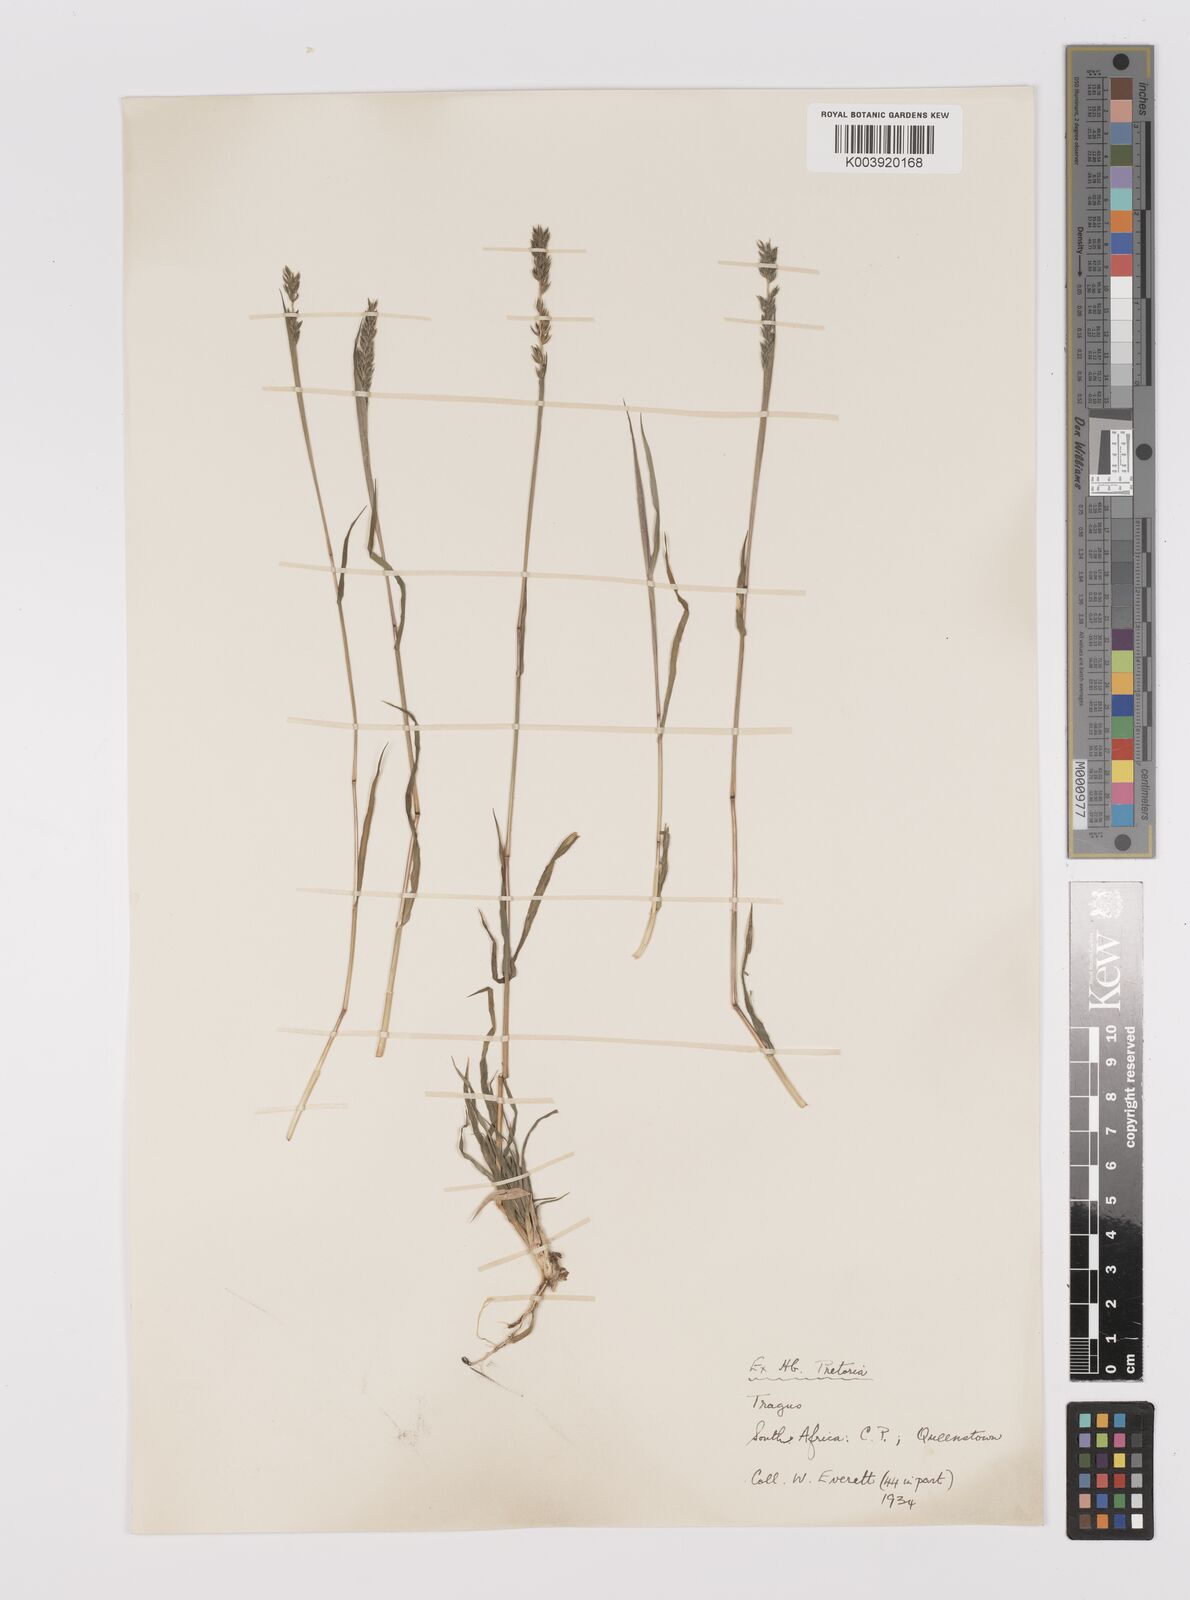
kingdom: Plantae
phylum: Tracheophyta
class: Liliopsida
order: Poales
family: Poaceae
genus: Tragus
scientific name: Tragus koelerioides
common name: Creeping carrot-seed grass
